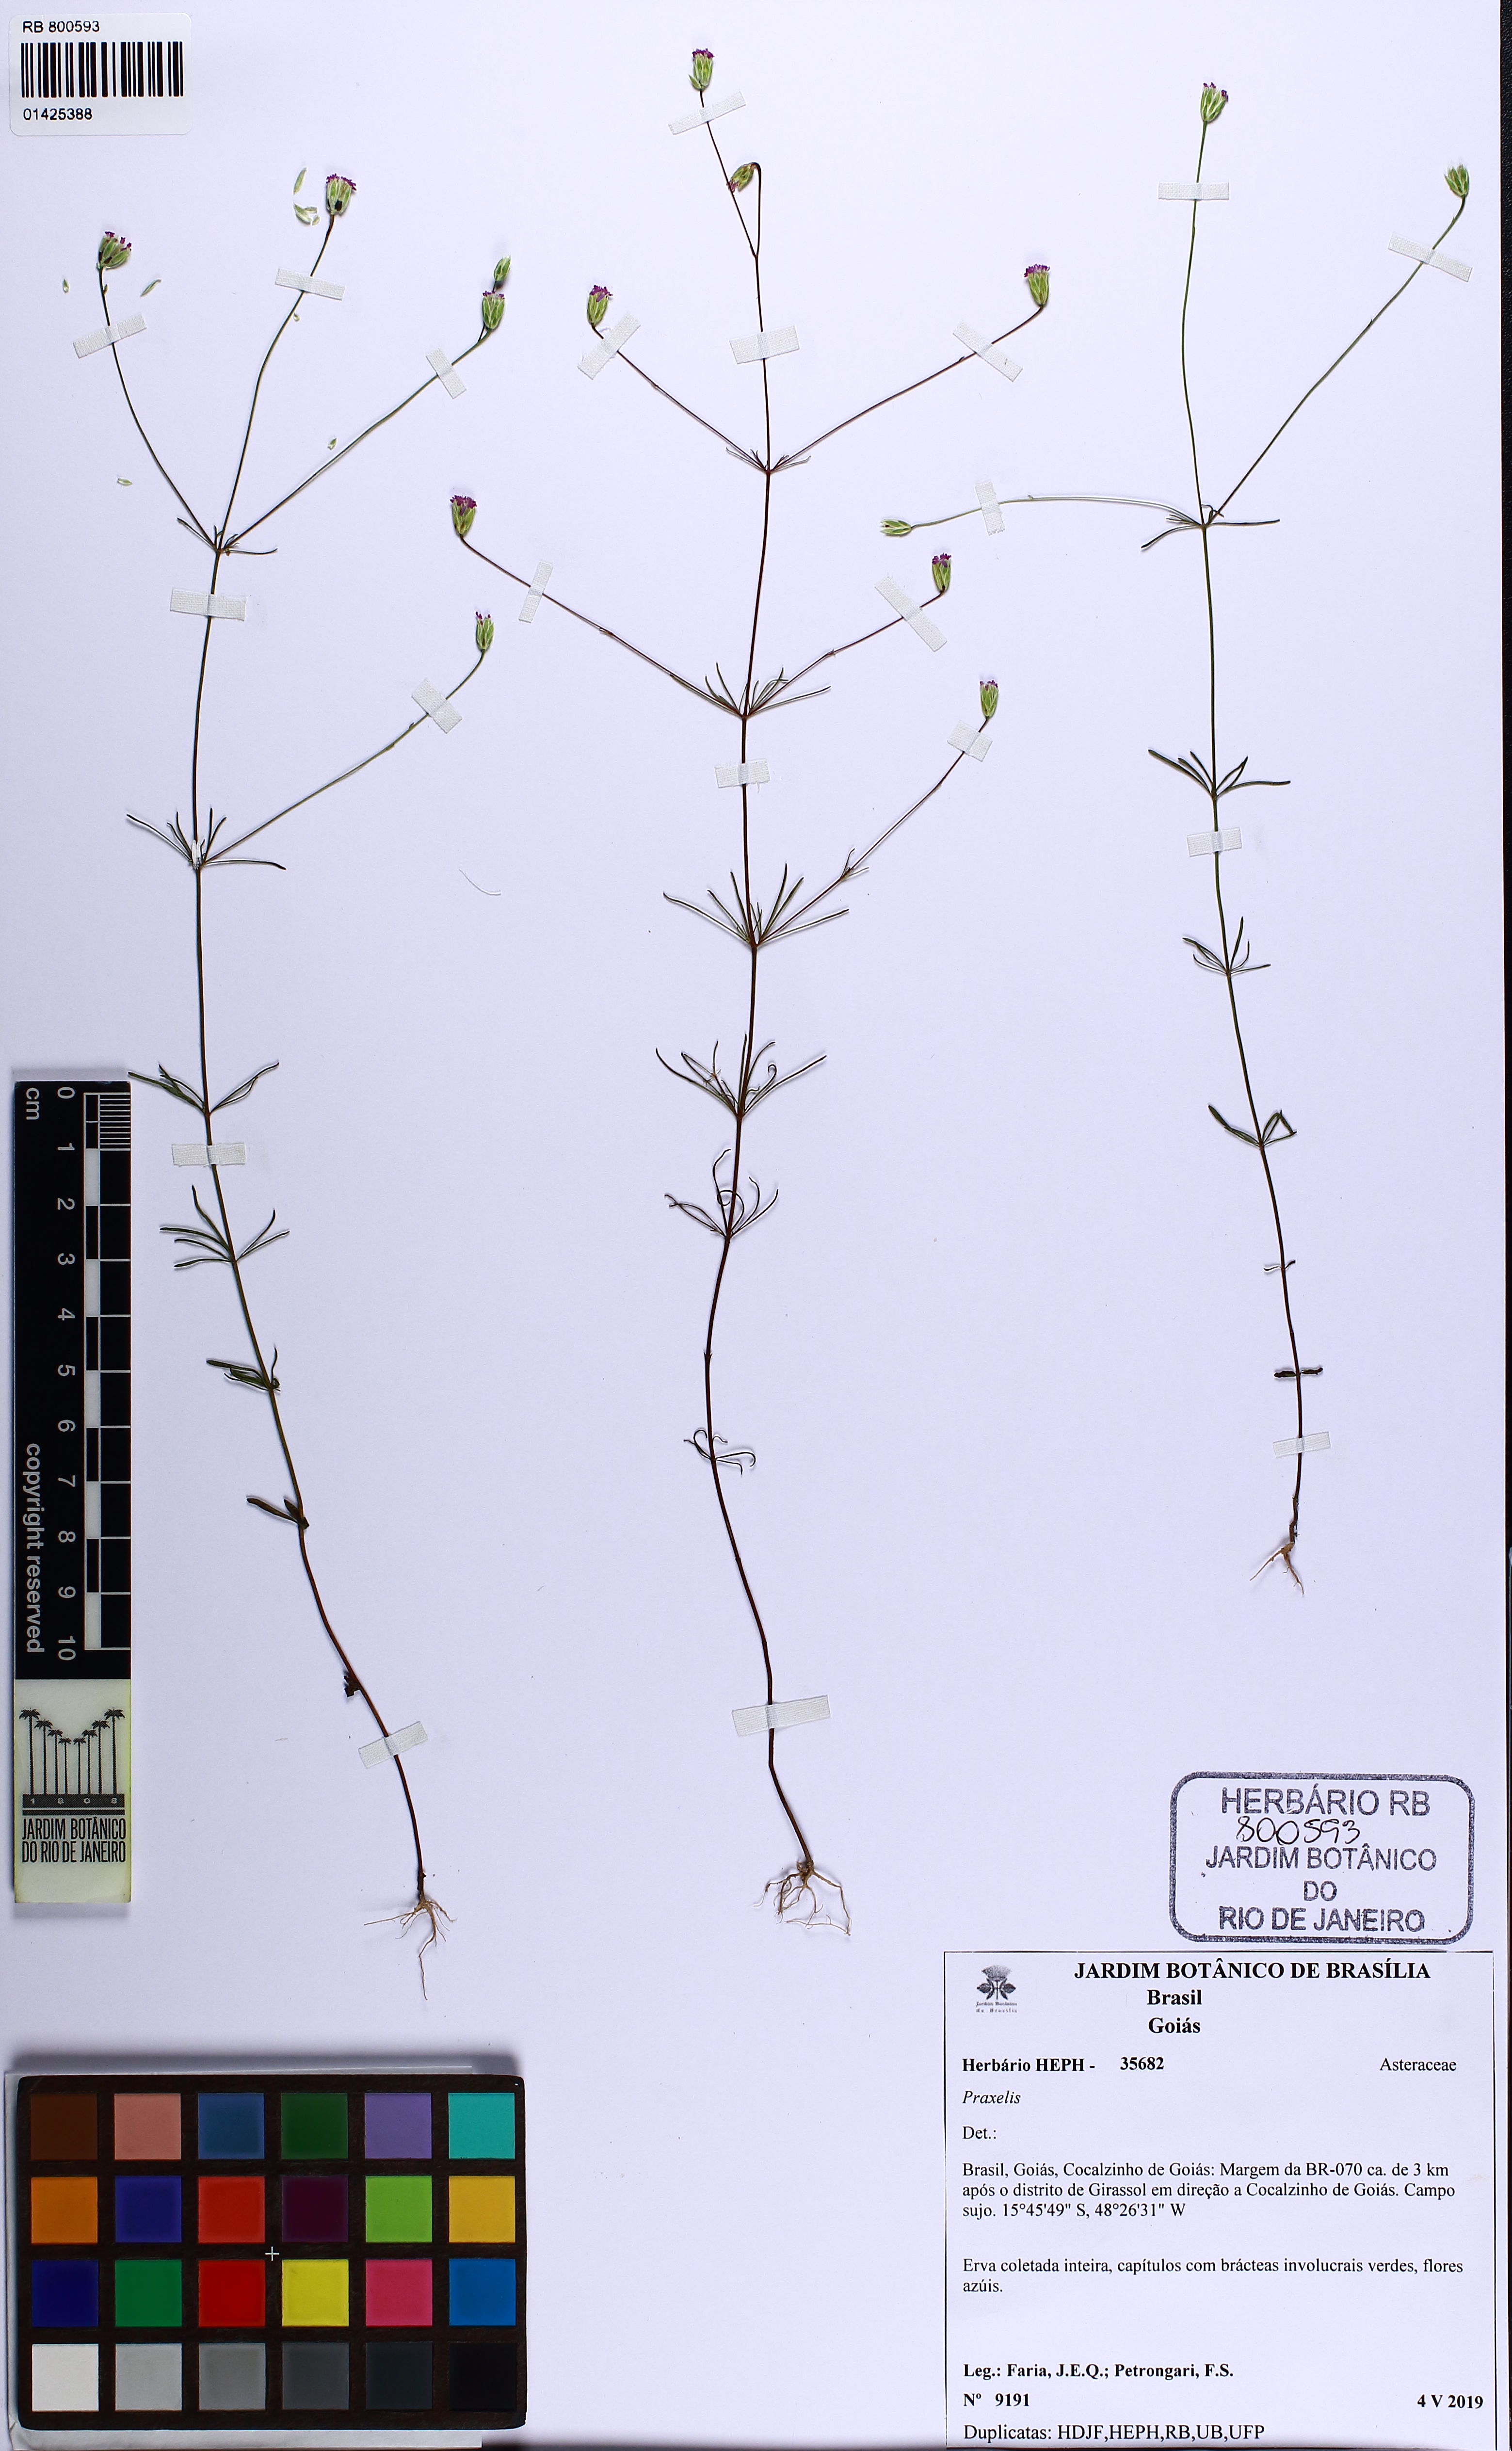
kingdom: Plantae
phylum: Tracheophyta
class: Magnoliopsida
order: Asterales
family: Asteraceae
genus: Praxelis
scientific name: Praxelis
